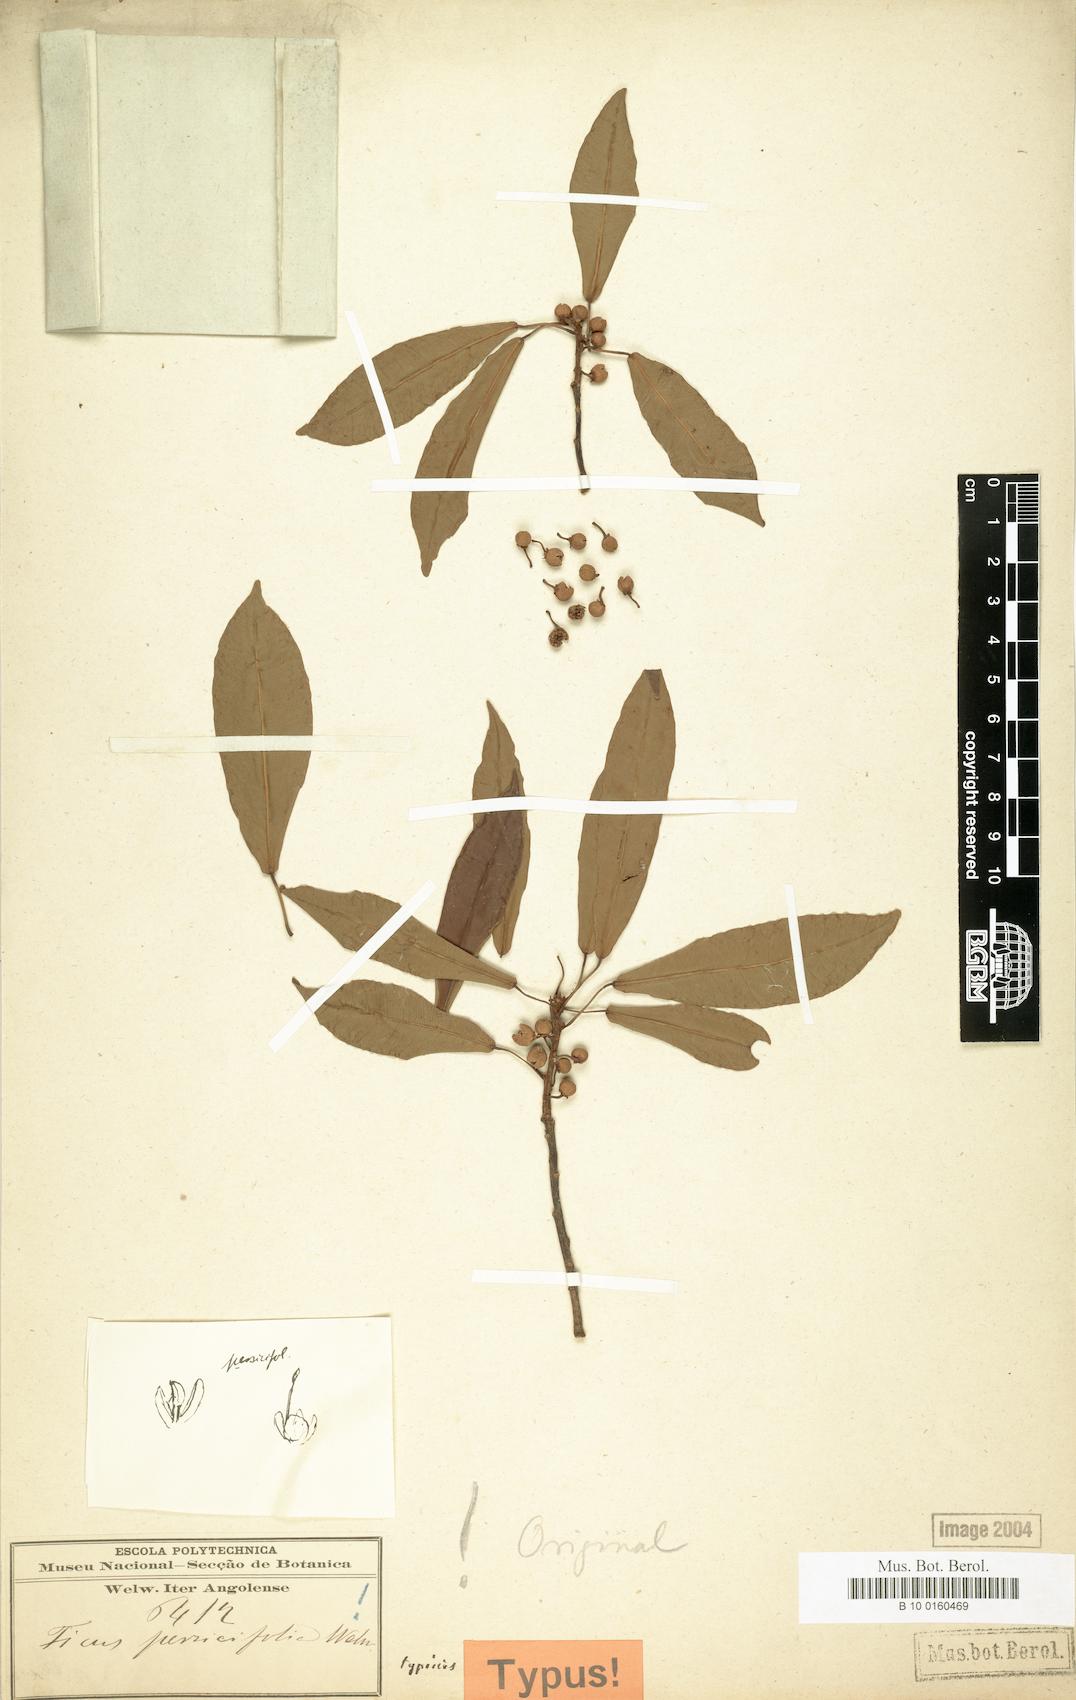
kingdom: Plantae
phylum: Tracheophyta
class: Magnoliopsida
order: Rosales
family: Moraceae
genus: Ficus
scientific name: Ficus thonningii
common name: Fig
